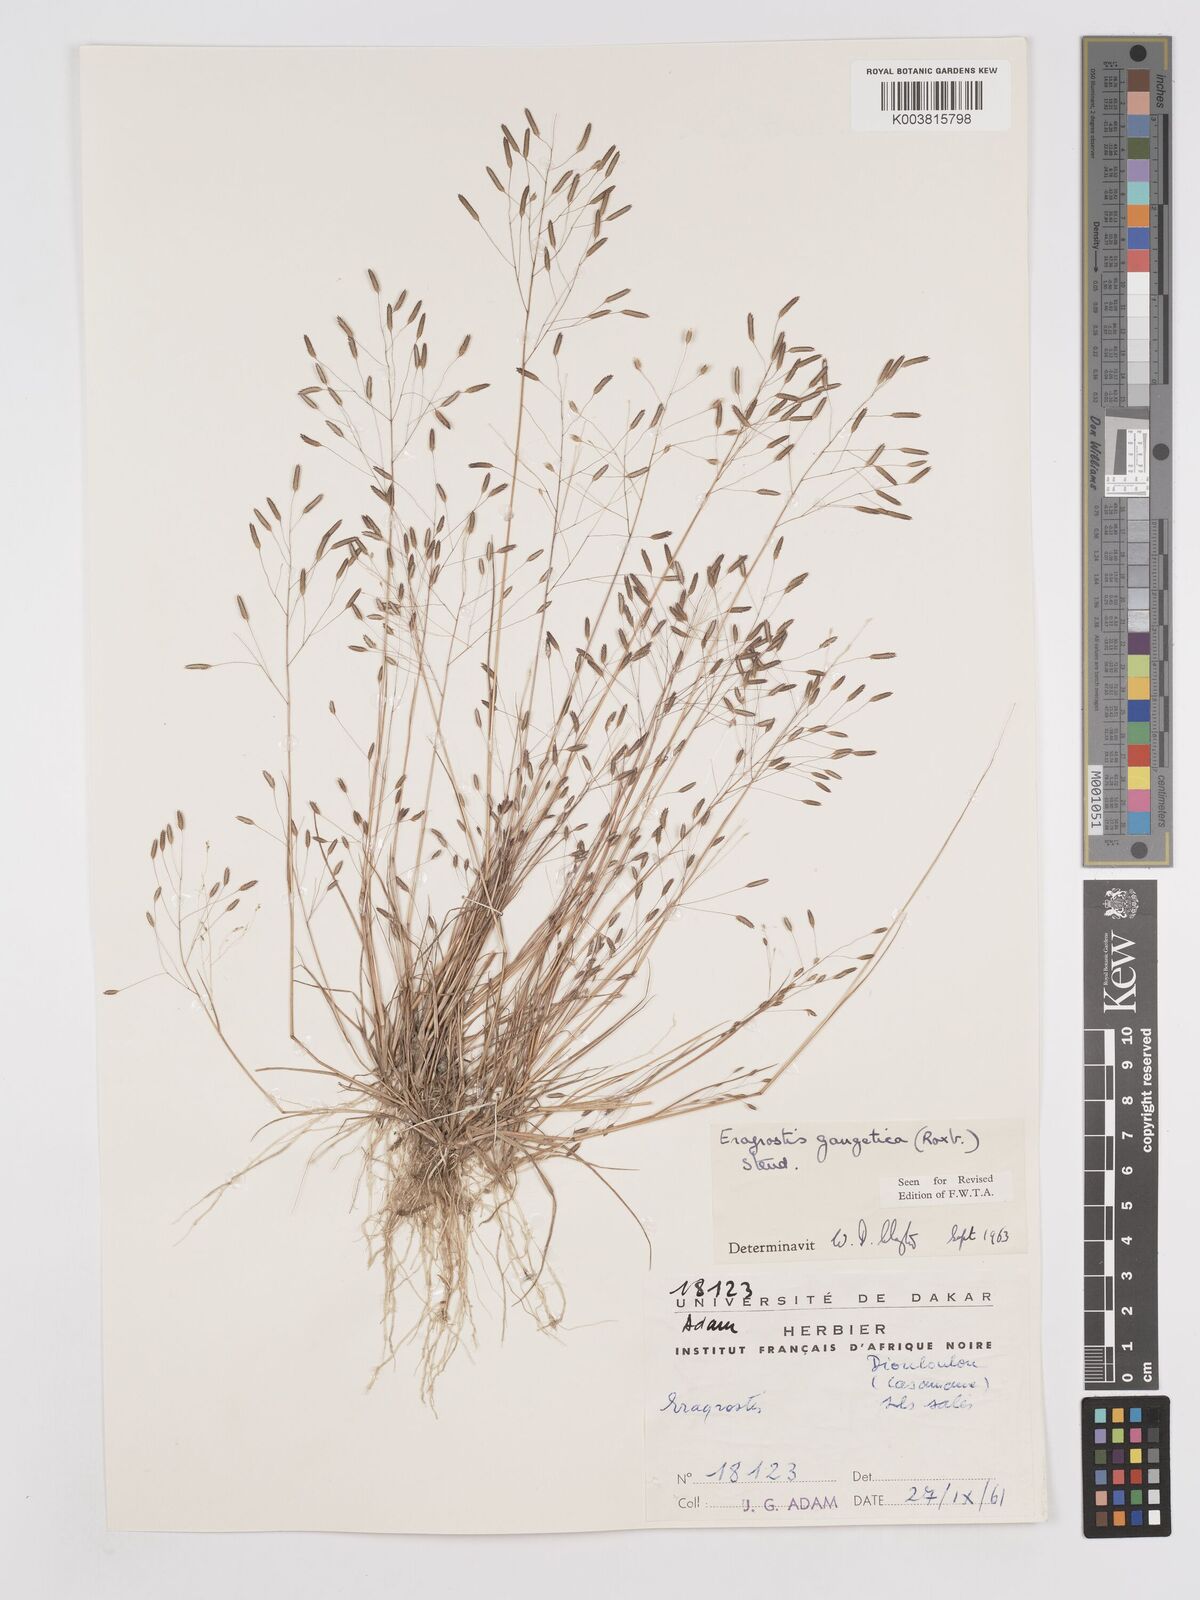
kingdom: Plantae
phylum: Tracheophyta
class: Liliopsida
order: Poales
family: Poaceae
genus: Eragrostis
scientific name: Eragrostis gangetica
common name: Slimflower lovegrass
